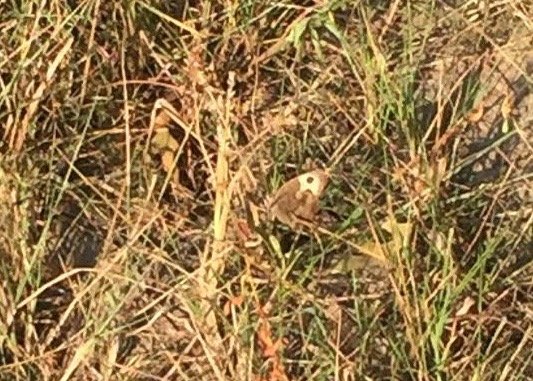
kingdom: Animalia
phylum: Arthropoda
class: Insecta
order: Lepidoptera
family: Nymphalidae
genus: Cercyonis
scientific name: Cercyonis pegala
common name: Common Wood-Nymph
